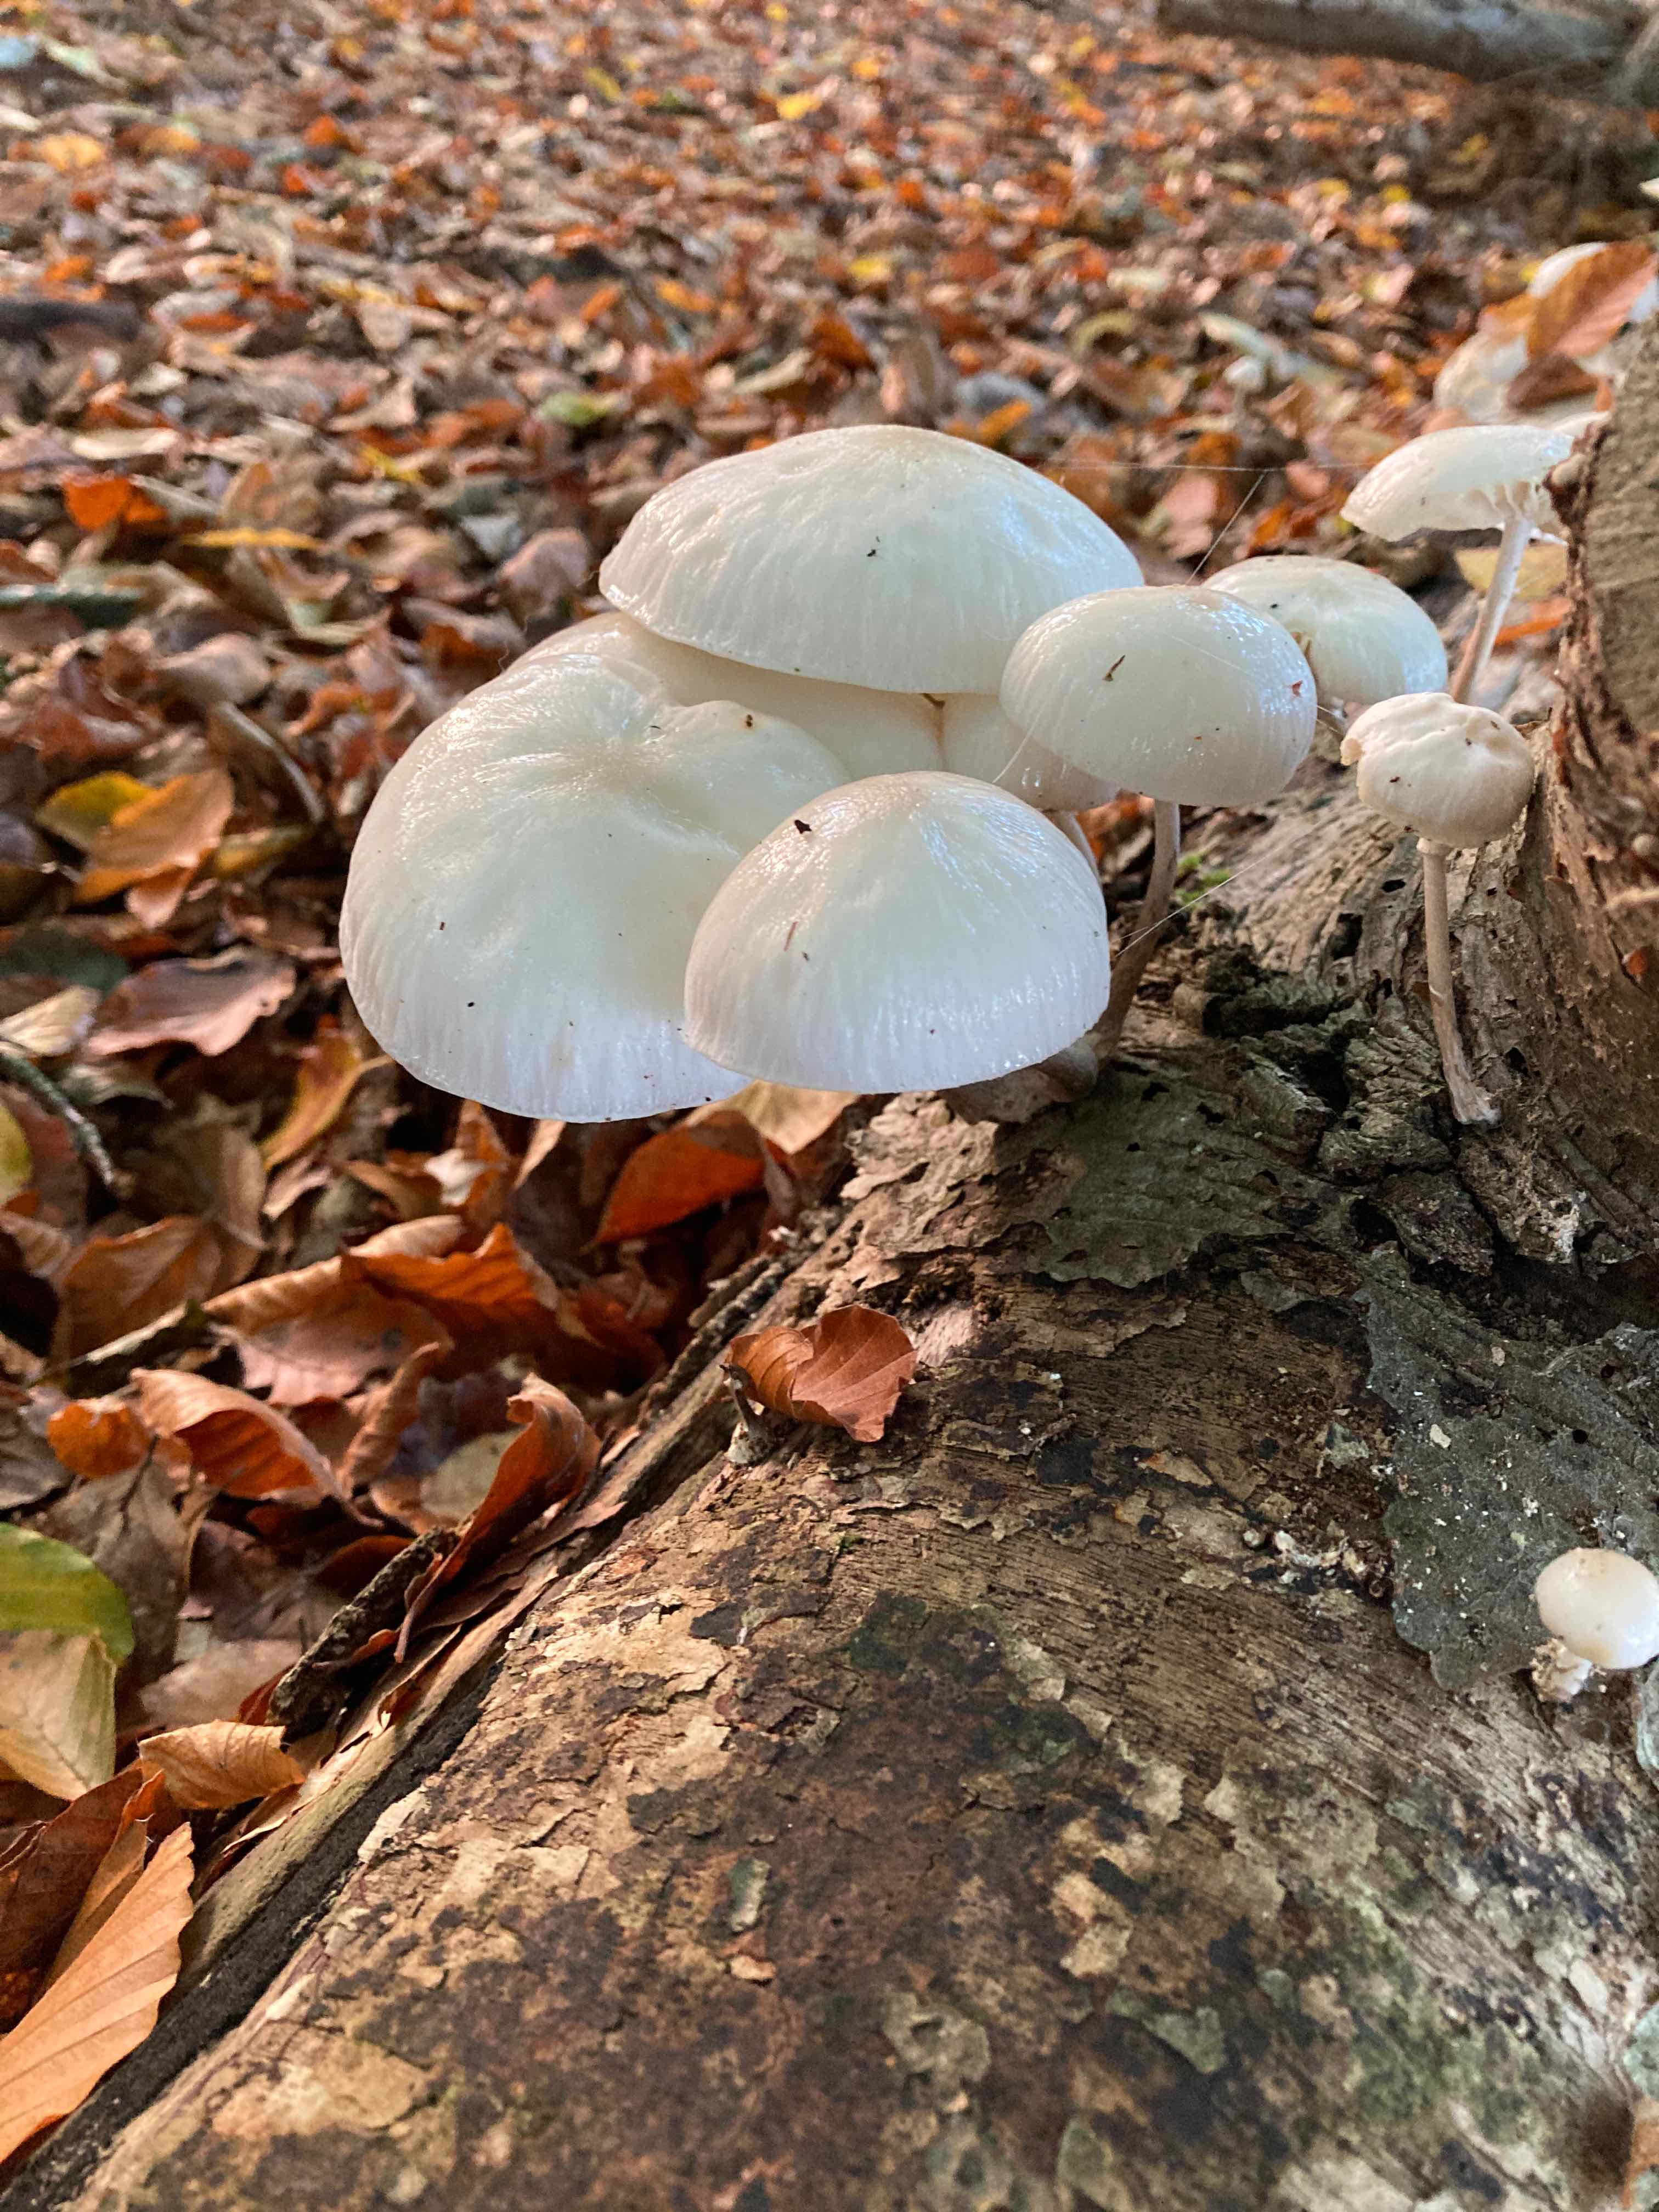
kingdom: Fungi
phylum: Basidiomycota
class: Agaricomycetes
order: Agaricales
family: Physalacriaceae
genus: Mucidula
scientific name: Mucidula mucida
